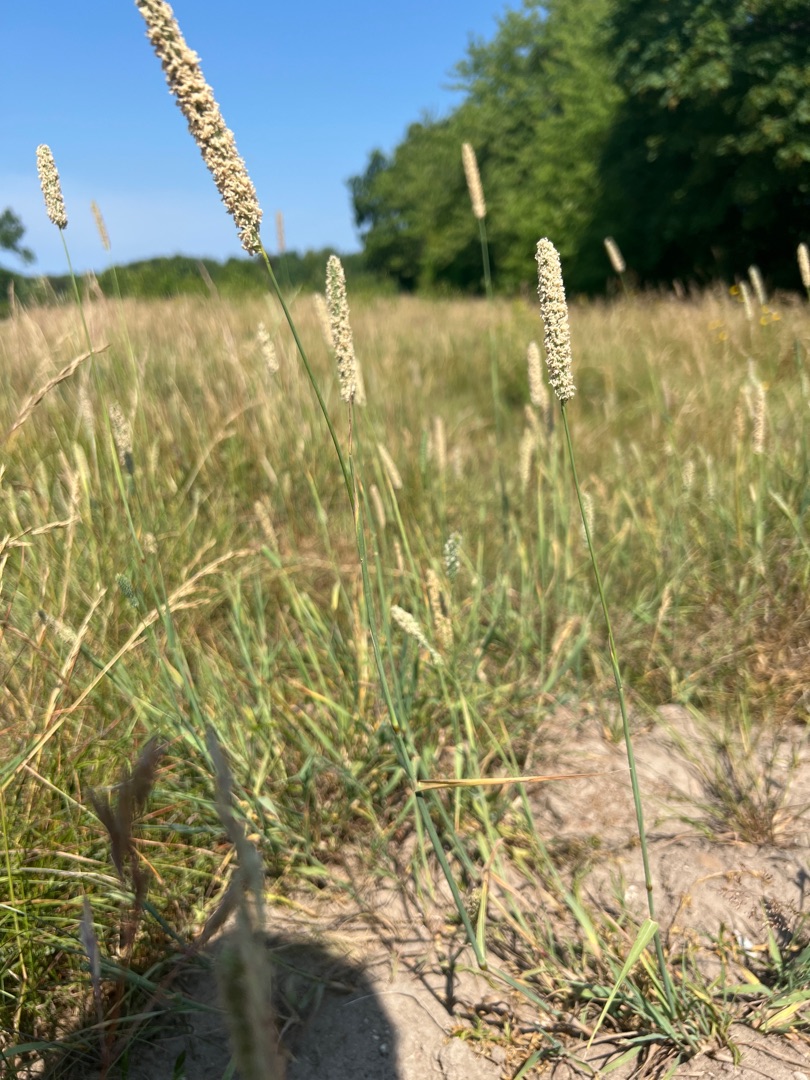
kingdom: Plantae
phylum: Tracheophyta
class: Liliopsida
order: Poales
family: Poaceae
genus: Phleum
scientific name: Phleum pratense
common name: Eng-rottehale
